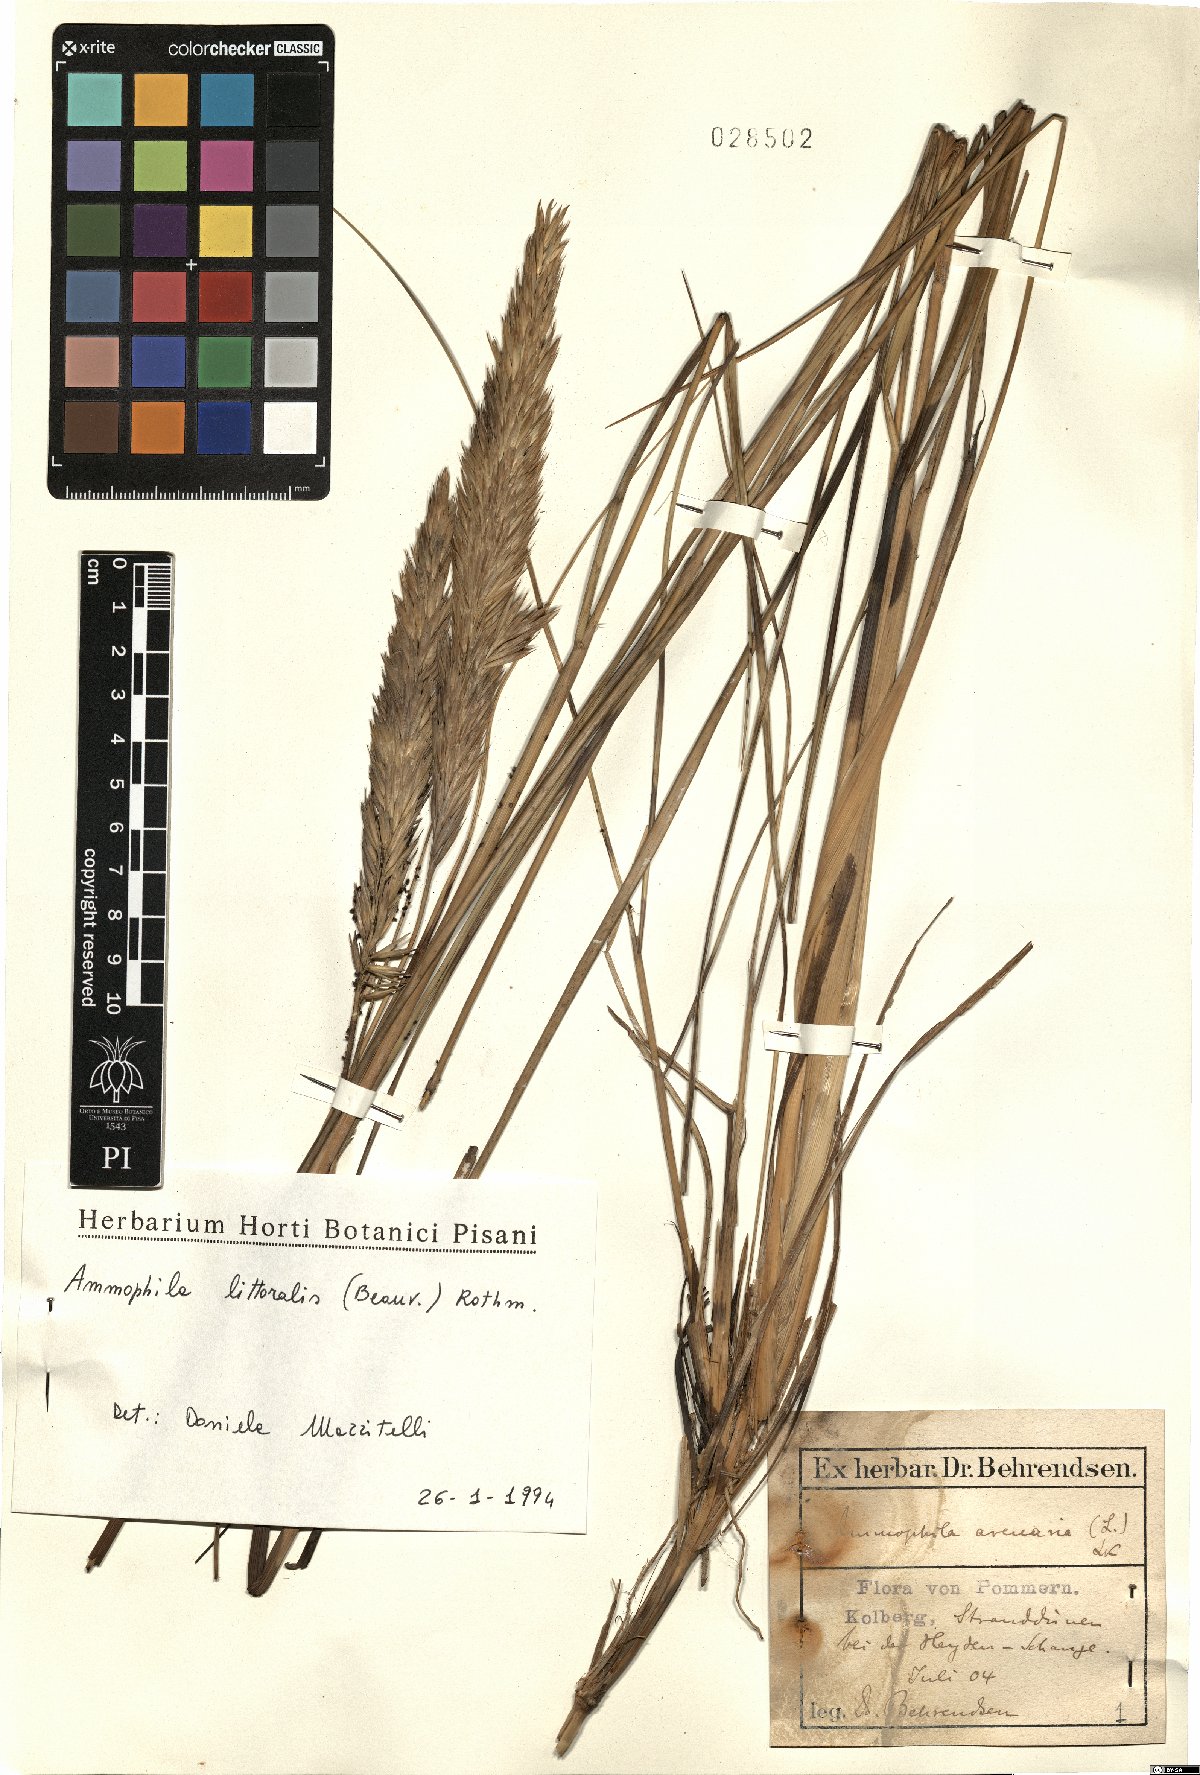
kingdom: Plantae
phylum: Tracheophyta
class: Liliopsida
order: Poales
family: Poaceae
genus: Calamagrostis
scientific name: Calamagrostis arenaria
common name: European beachgrass
